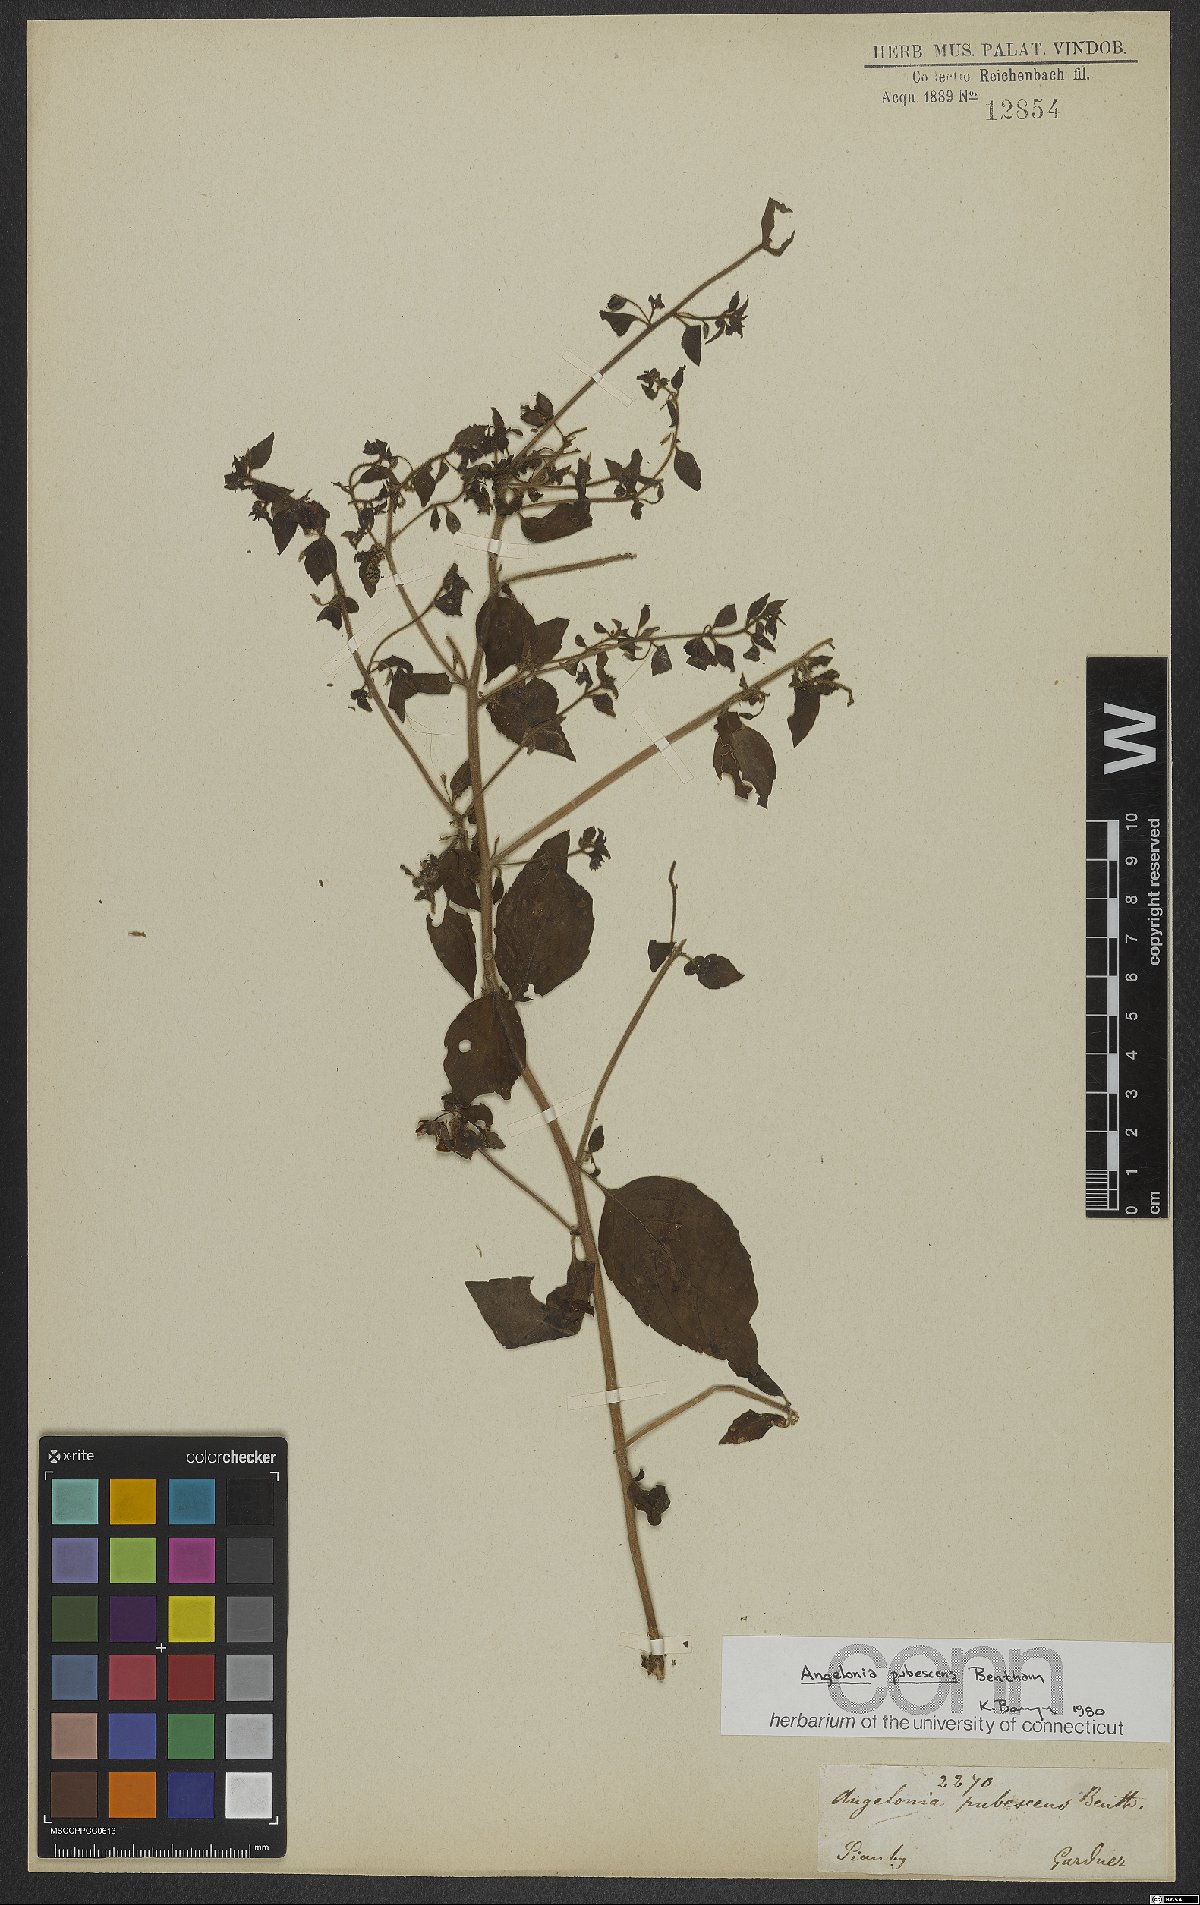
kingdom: Plantae
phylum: Tracheophyta
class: Magnoliopsida
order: Lamiales
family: Plantaginaceae
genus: Angelonia
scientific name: Angelonia pubescens
